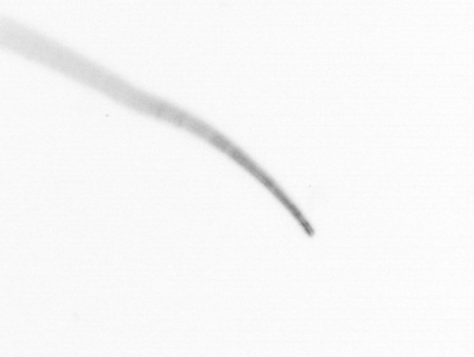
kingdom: Chromista
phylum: Ochrophyta
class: Bacillariophyceae
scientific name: Bacillariophyceae
